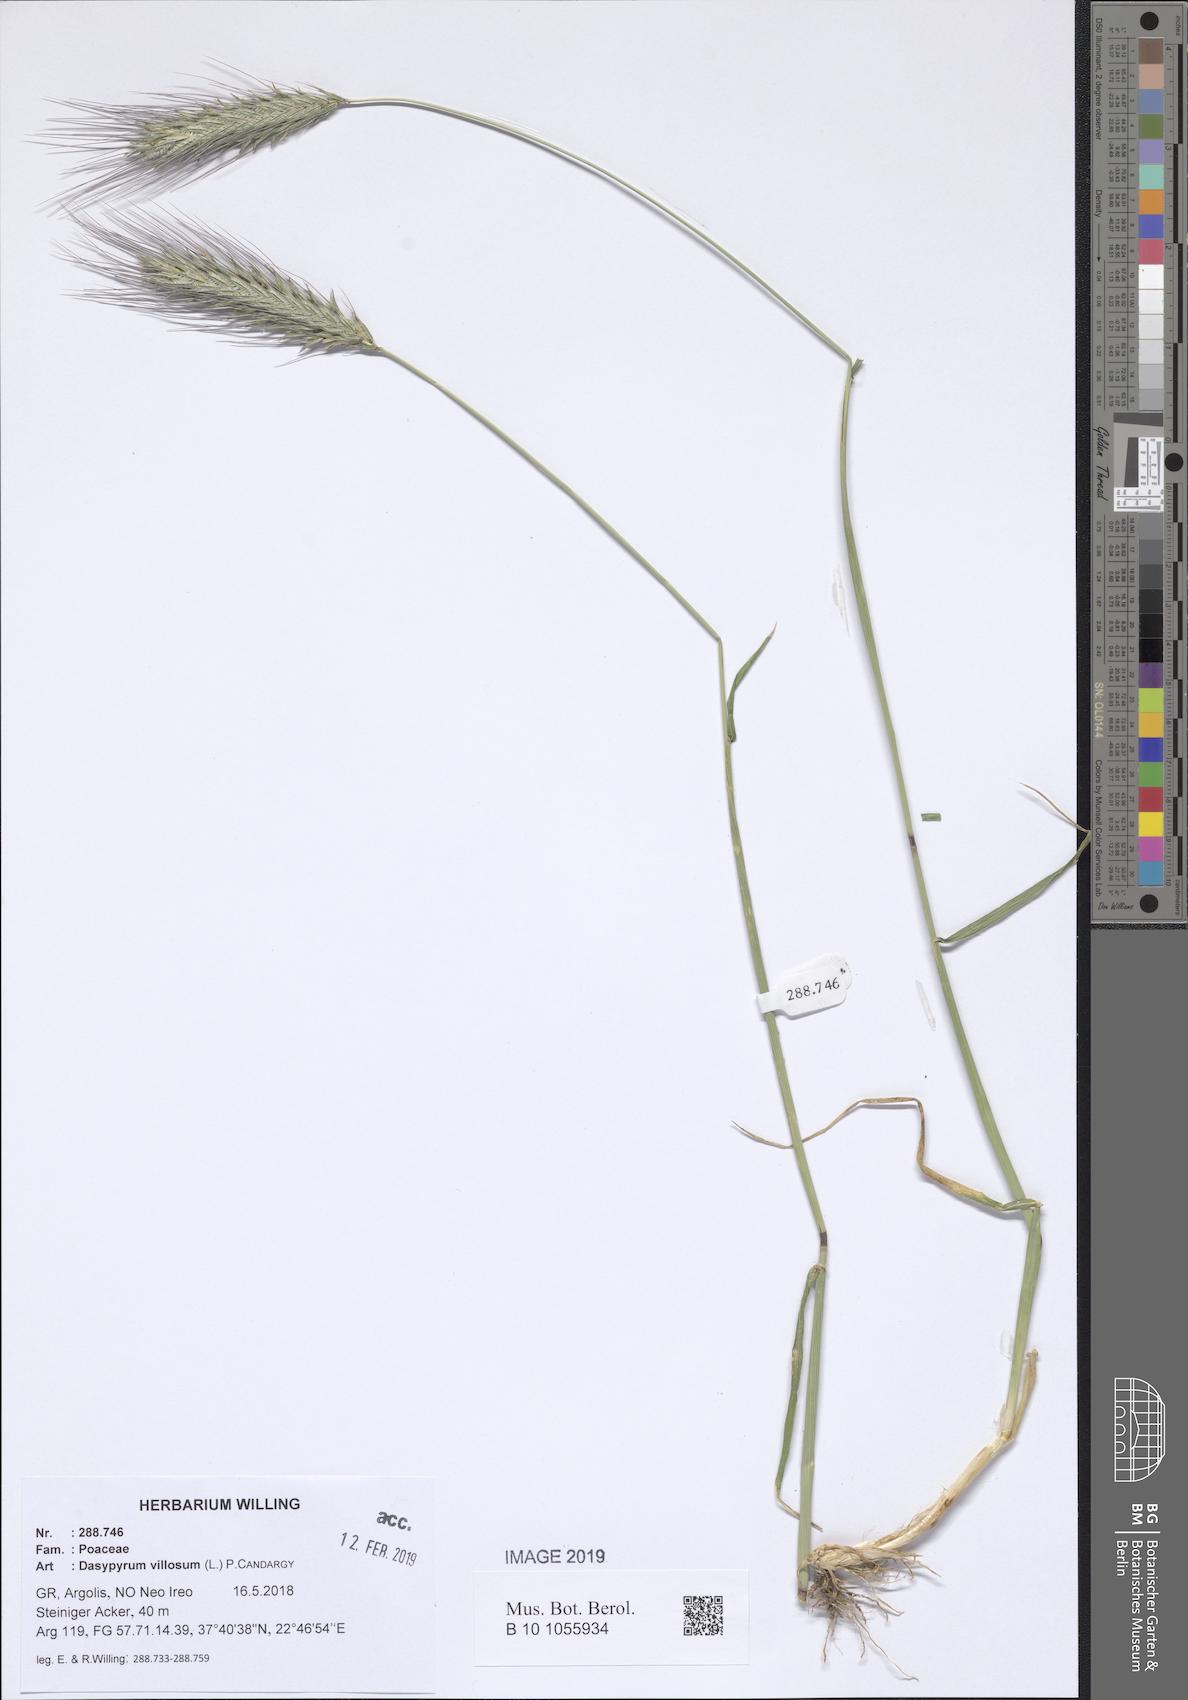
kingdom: Plantae
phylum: Tracheophyta
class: Liliopsida
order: Poales
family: Poaceae
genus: Dasypyrum
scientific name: Dasypyrum villosum
